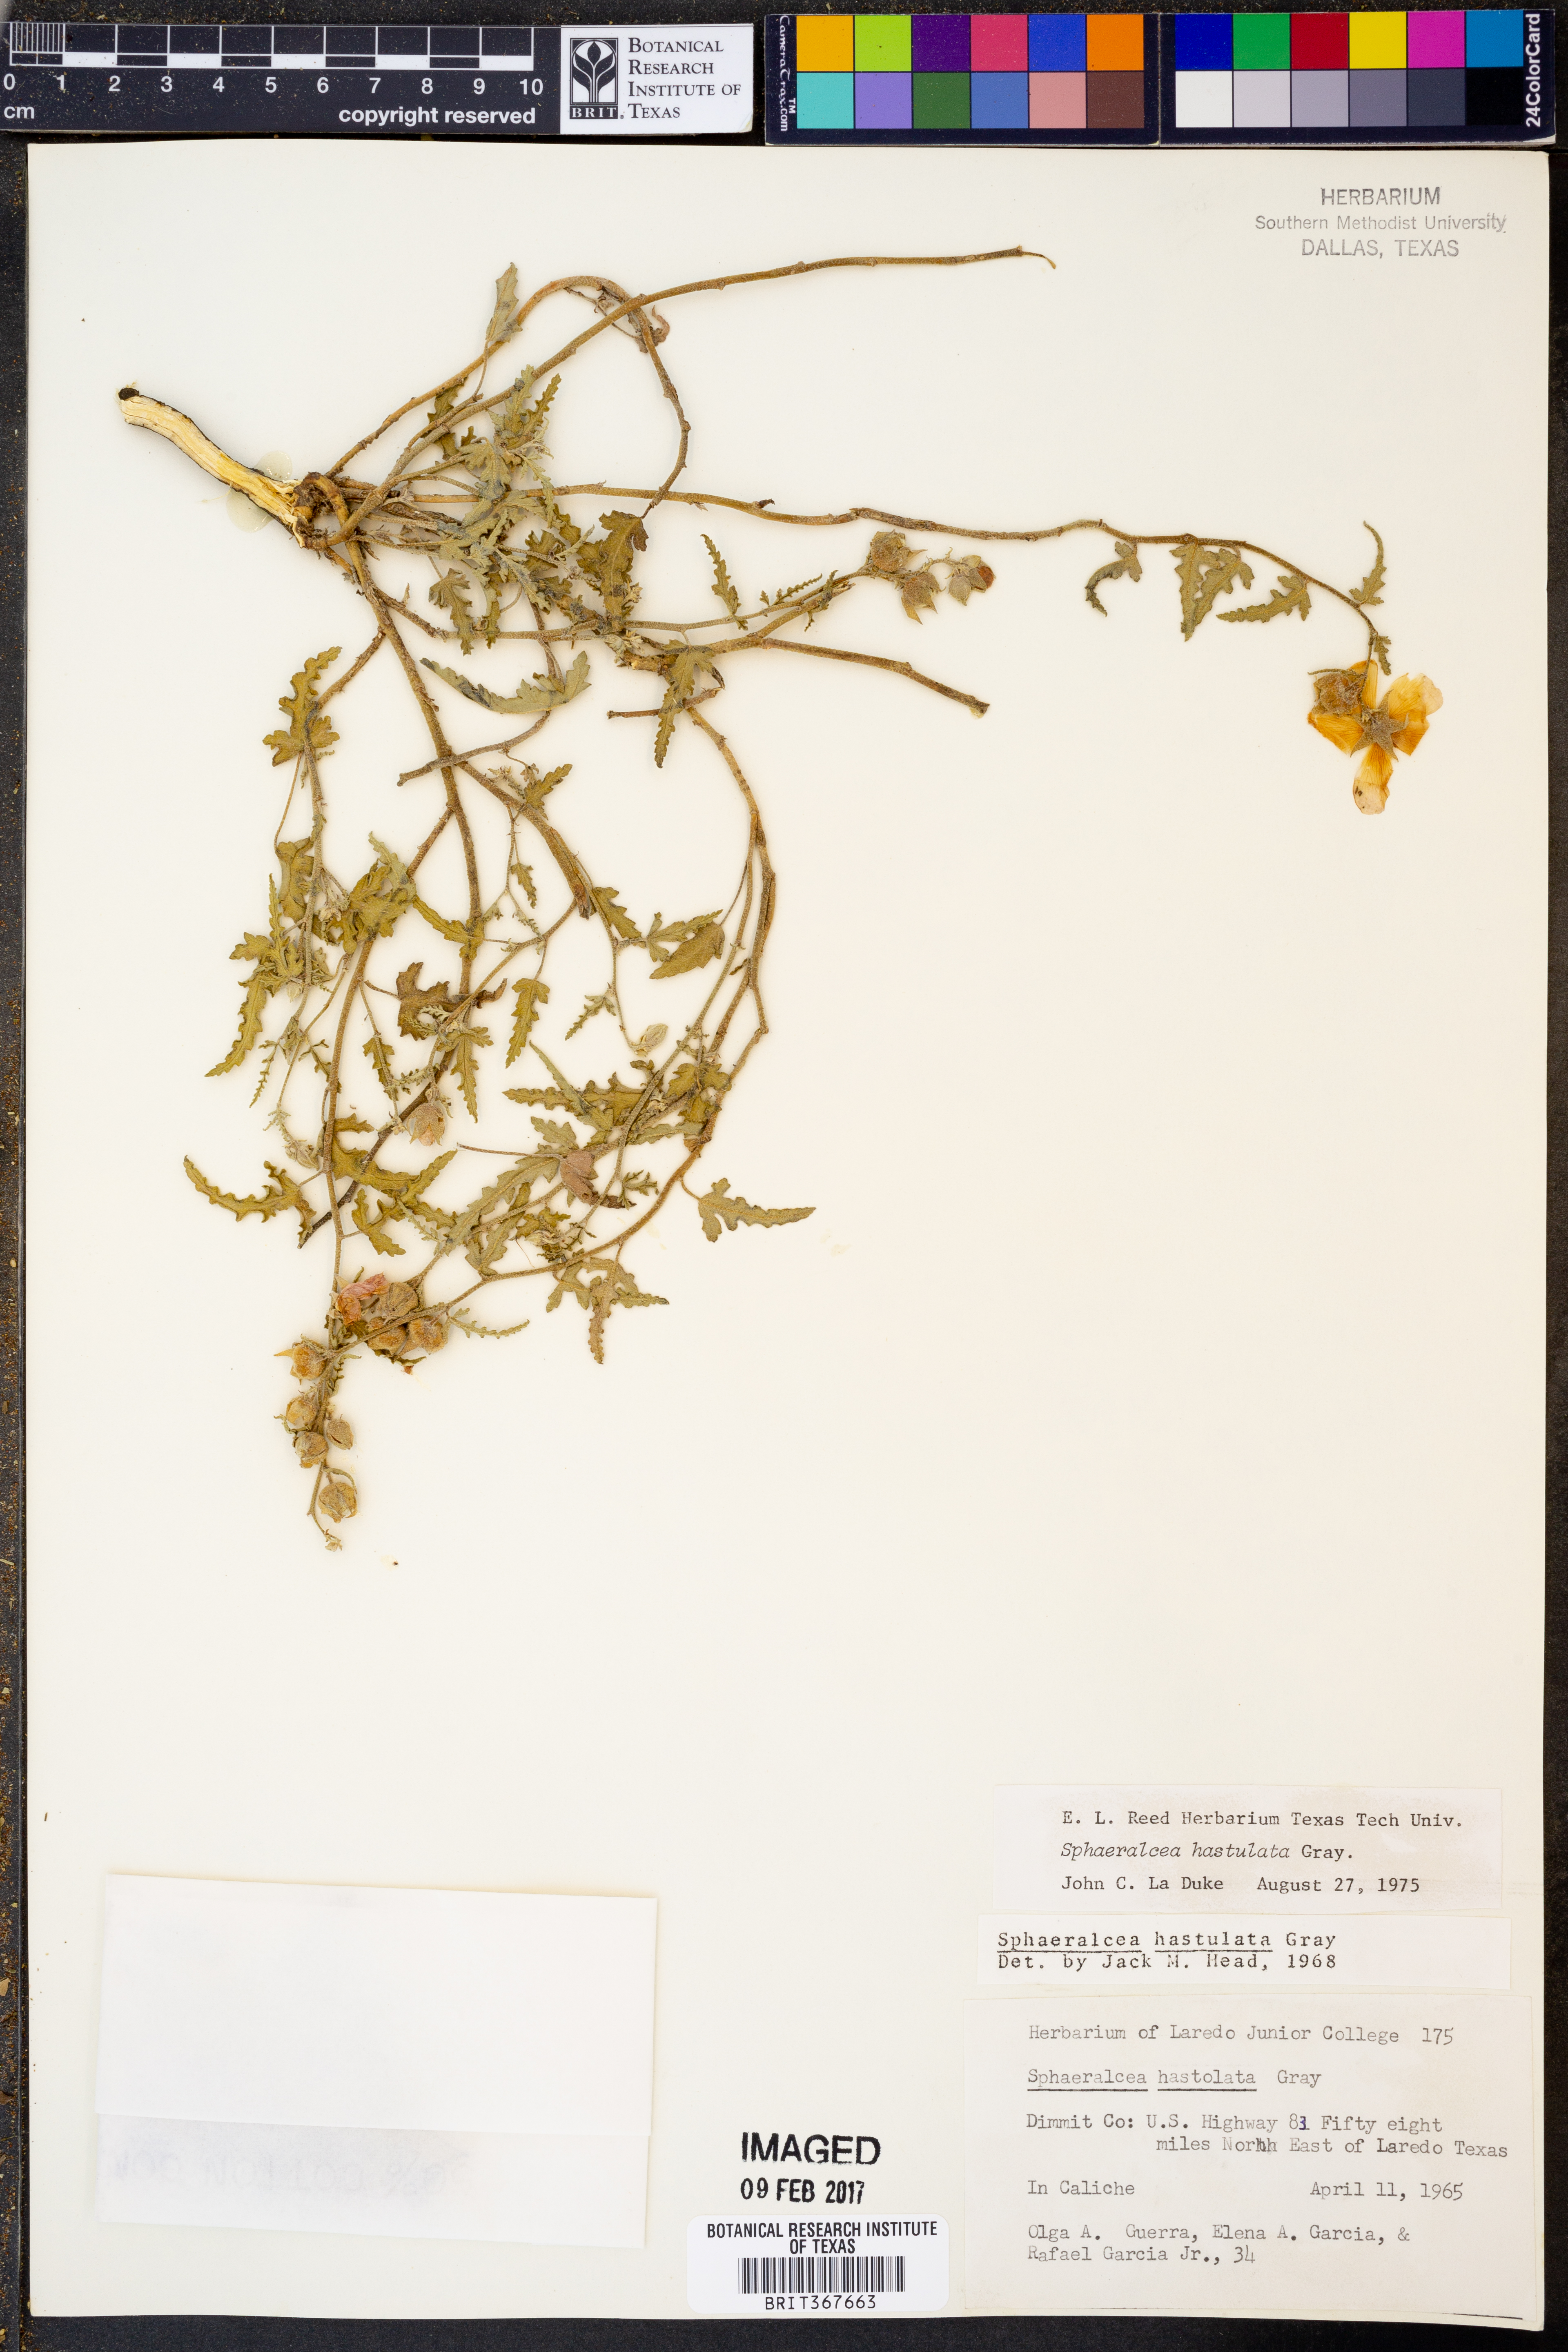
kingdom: Plantae
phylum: Tracheophyta
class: Magnoliopsida
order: Malvales
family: Malvaceae
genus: Sphaeralcea
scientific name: Sphaeralcea hastulata
